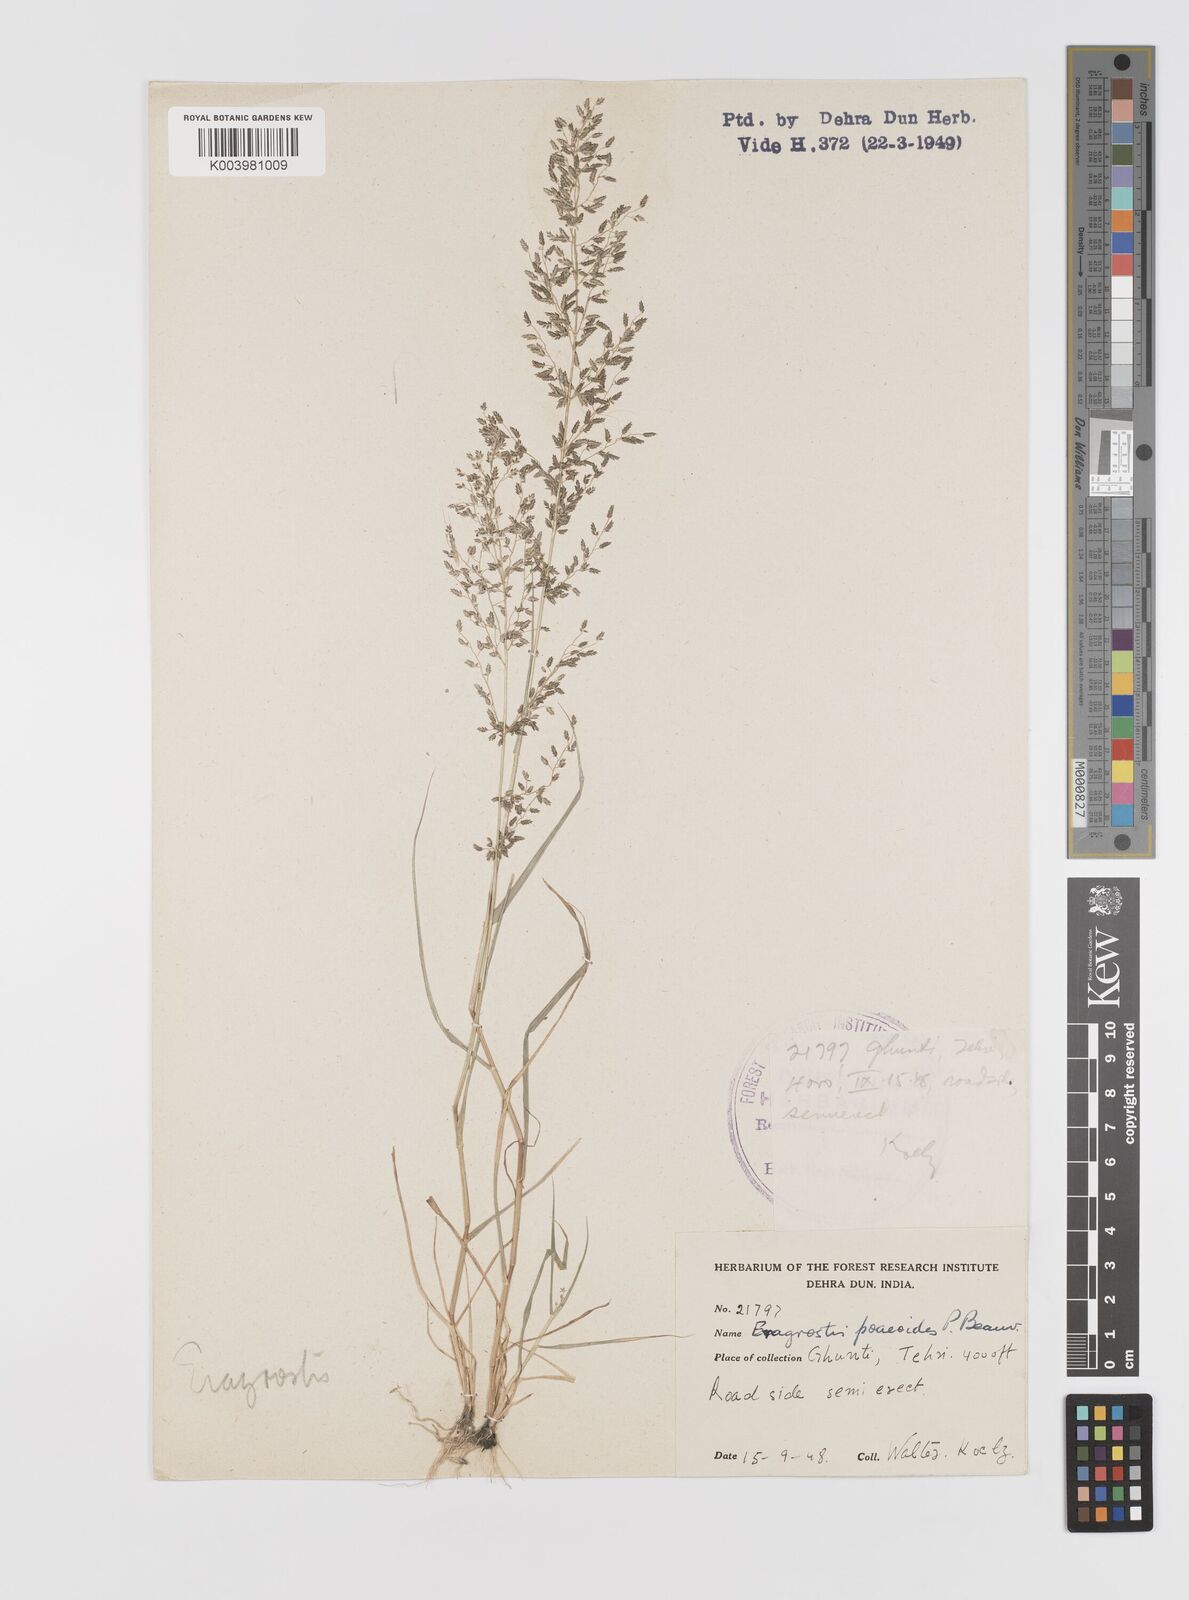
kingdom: Plantae
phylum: Tracheophyta
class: Liliopsida
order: Poales
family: Poaceae
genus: Eragrostis
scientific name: Eragrostis minor
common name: Small love-grass
